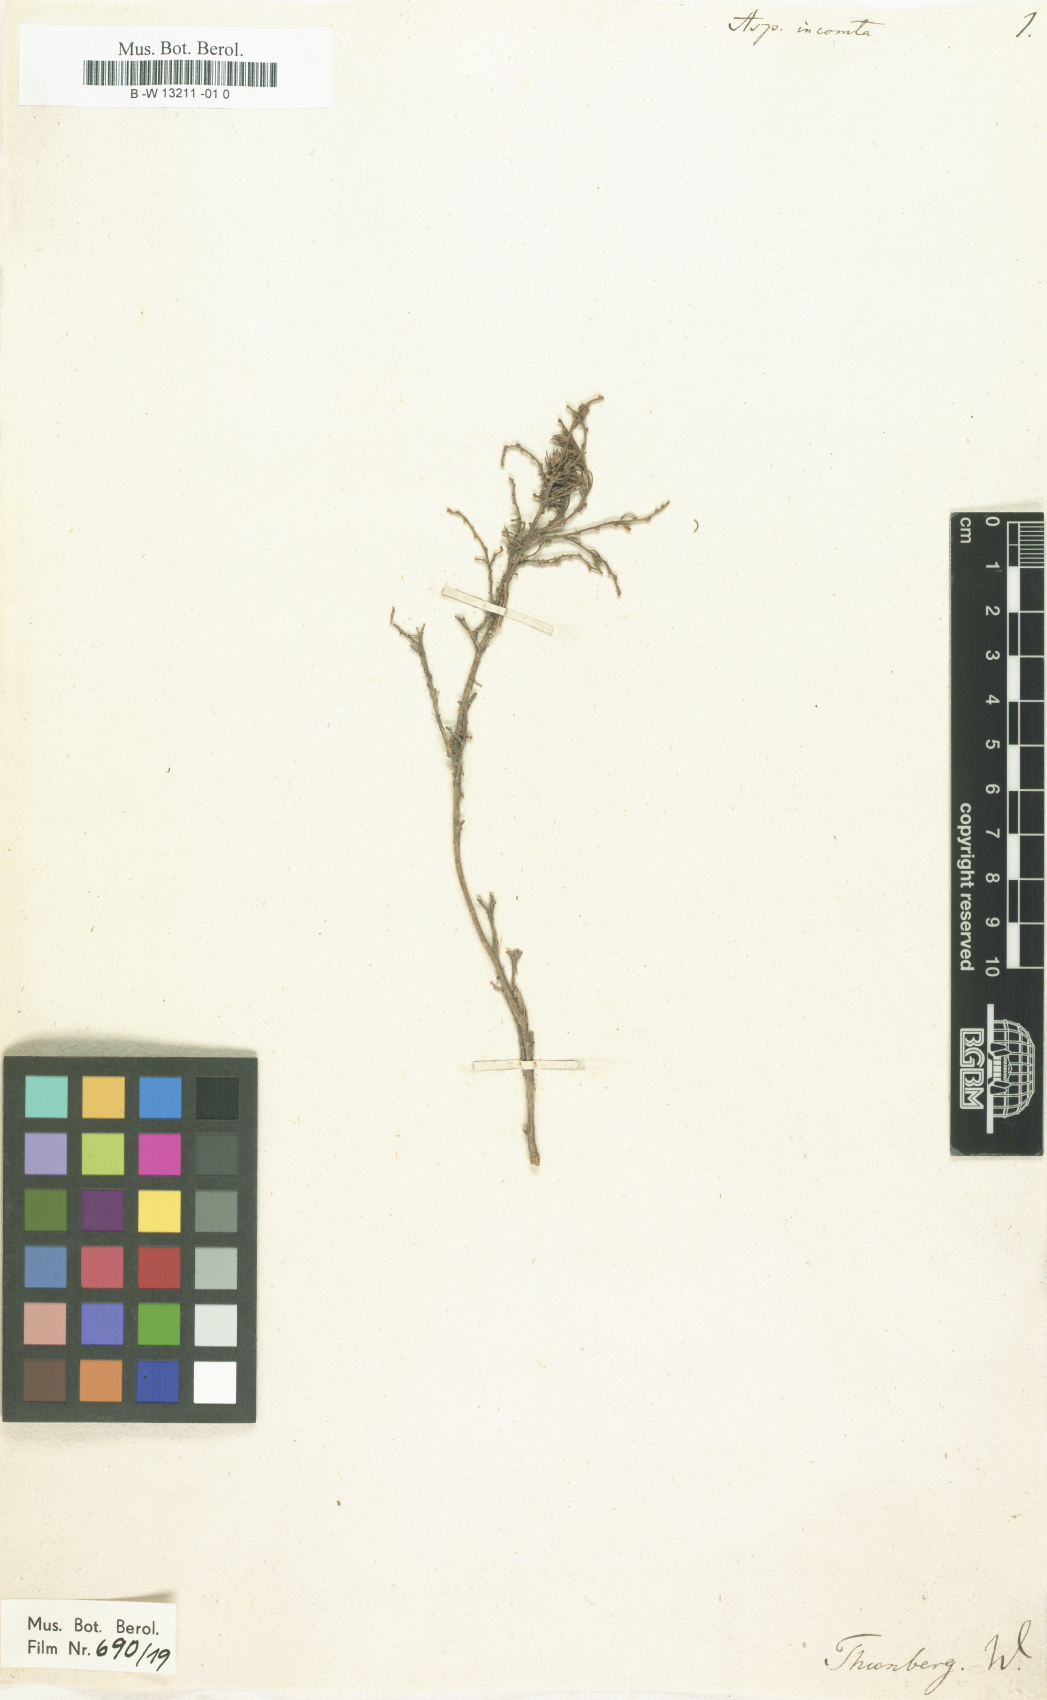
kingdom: Plantae
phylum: Tracheophyta
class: Magnoliopsida
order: Fabales
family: Fabaceae
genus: Aspalathus
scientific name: Aspalathus incomta
